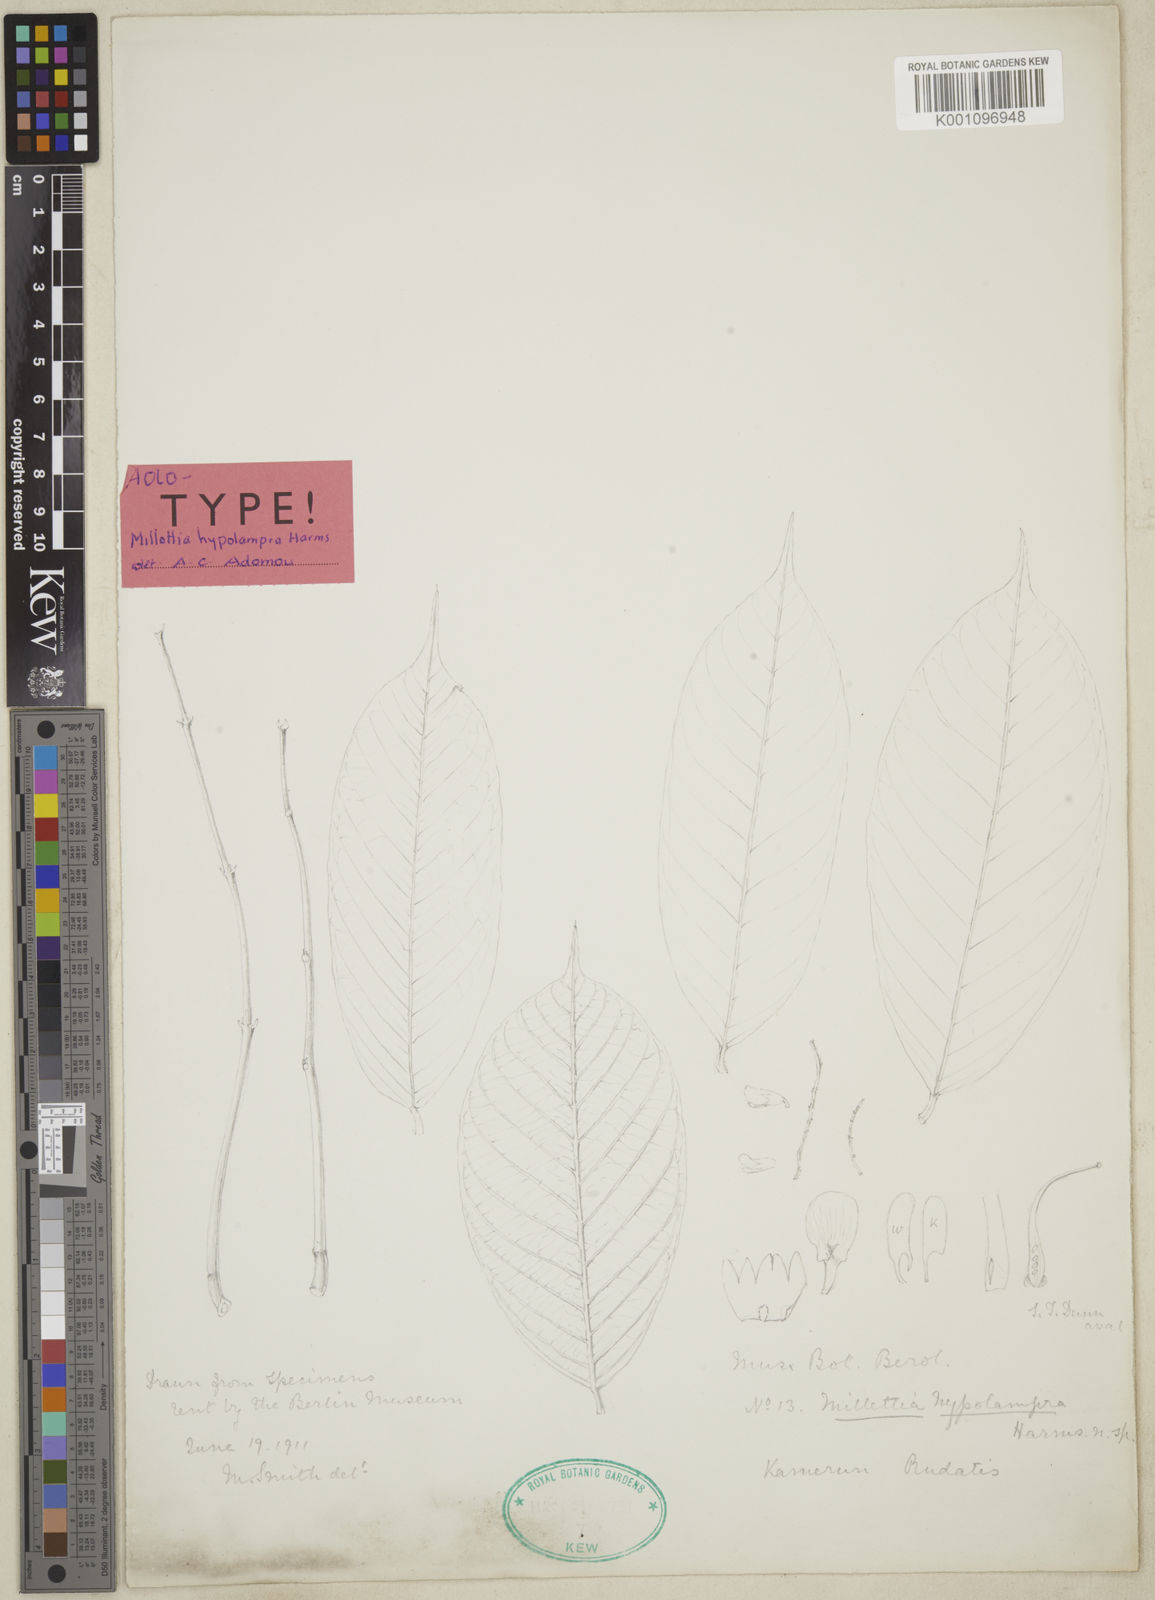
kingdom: Plantae
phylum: Tracheophyta
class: Magnoliopsida
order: Fabales
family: Fabaceae
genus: Millettia
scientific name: Millettia hypolampra
